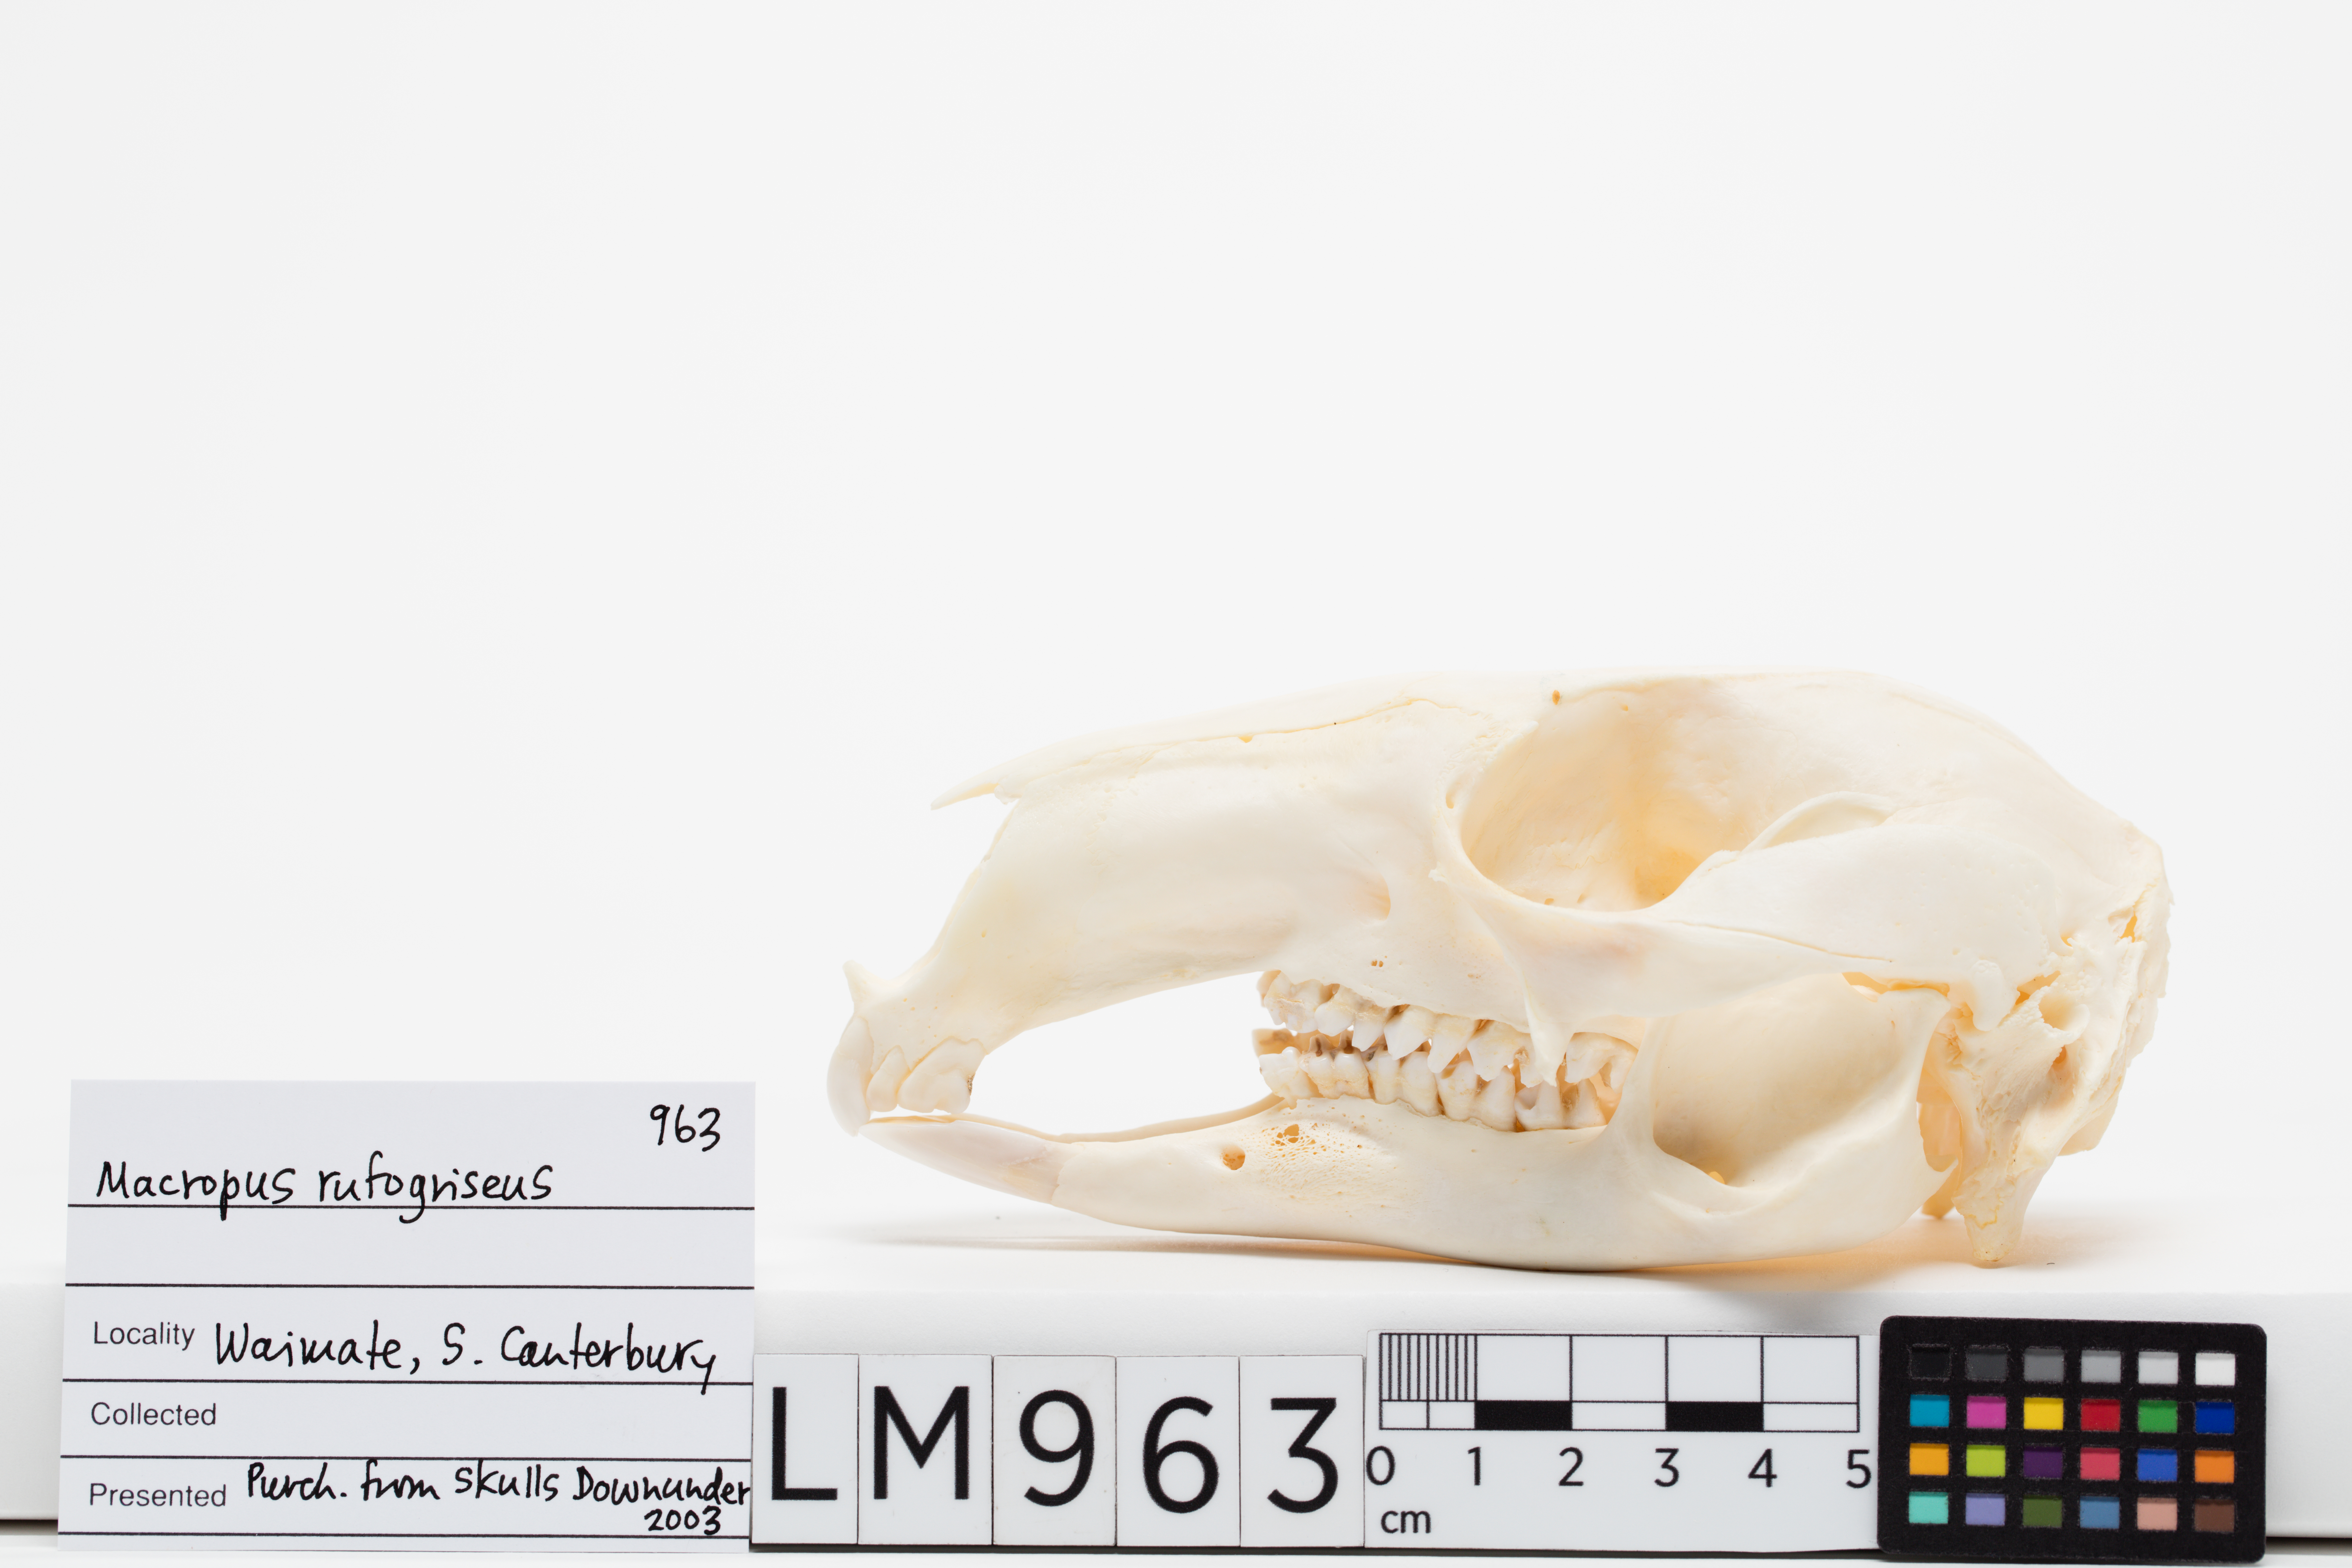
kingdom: Animalia
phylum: Chordata
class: Mammalia
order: Diprotodontia
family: Macropodidae
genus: Macropus
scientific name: Macropus rufogriseus
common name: Red-necked wallaby
